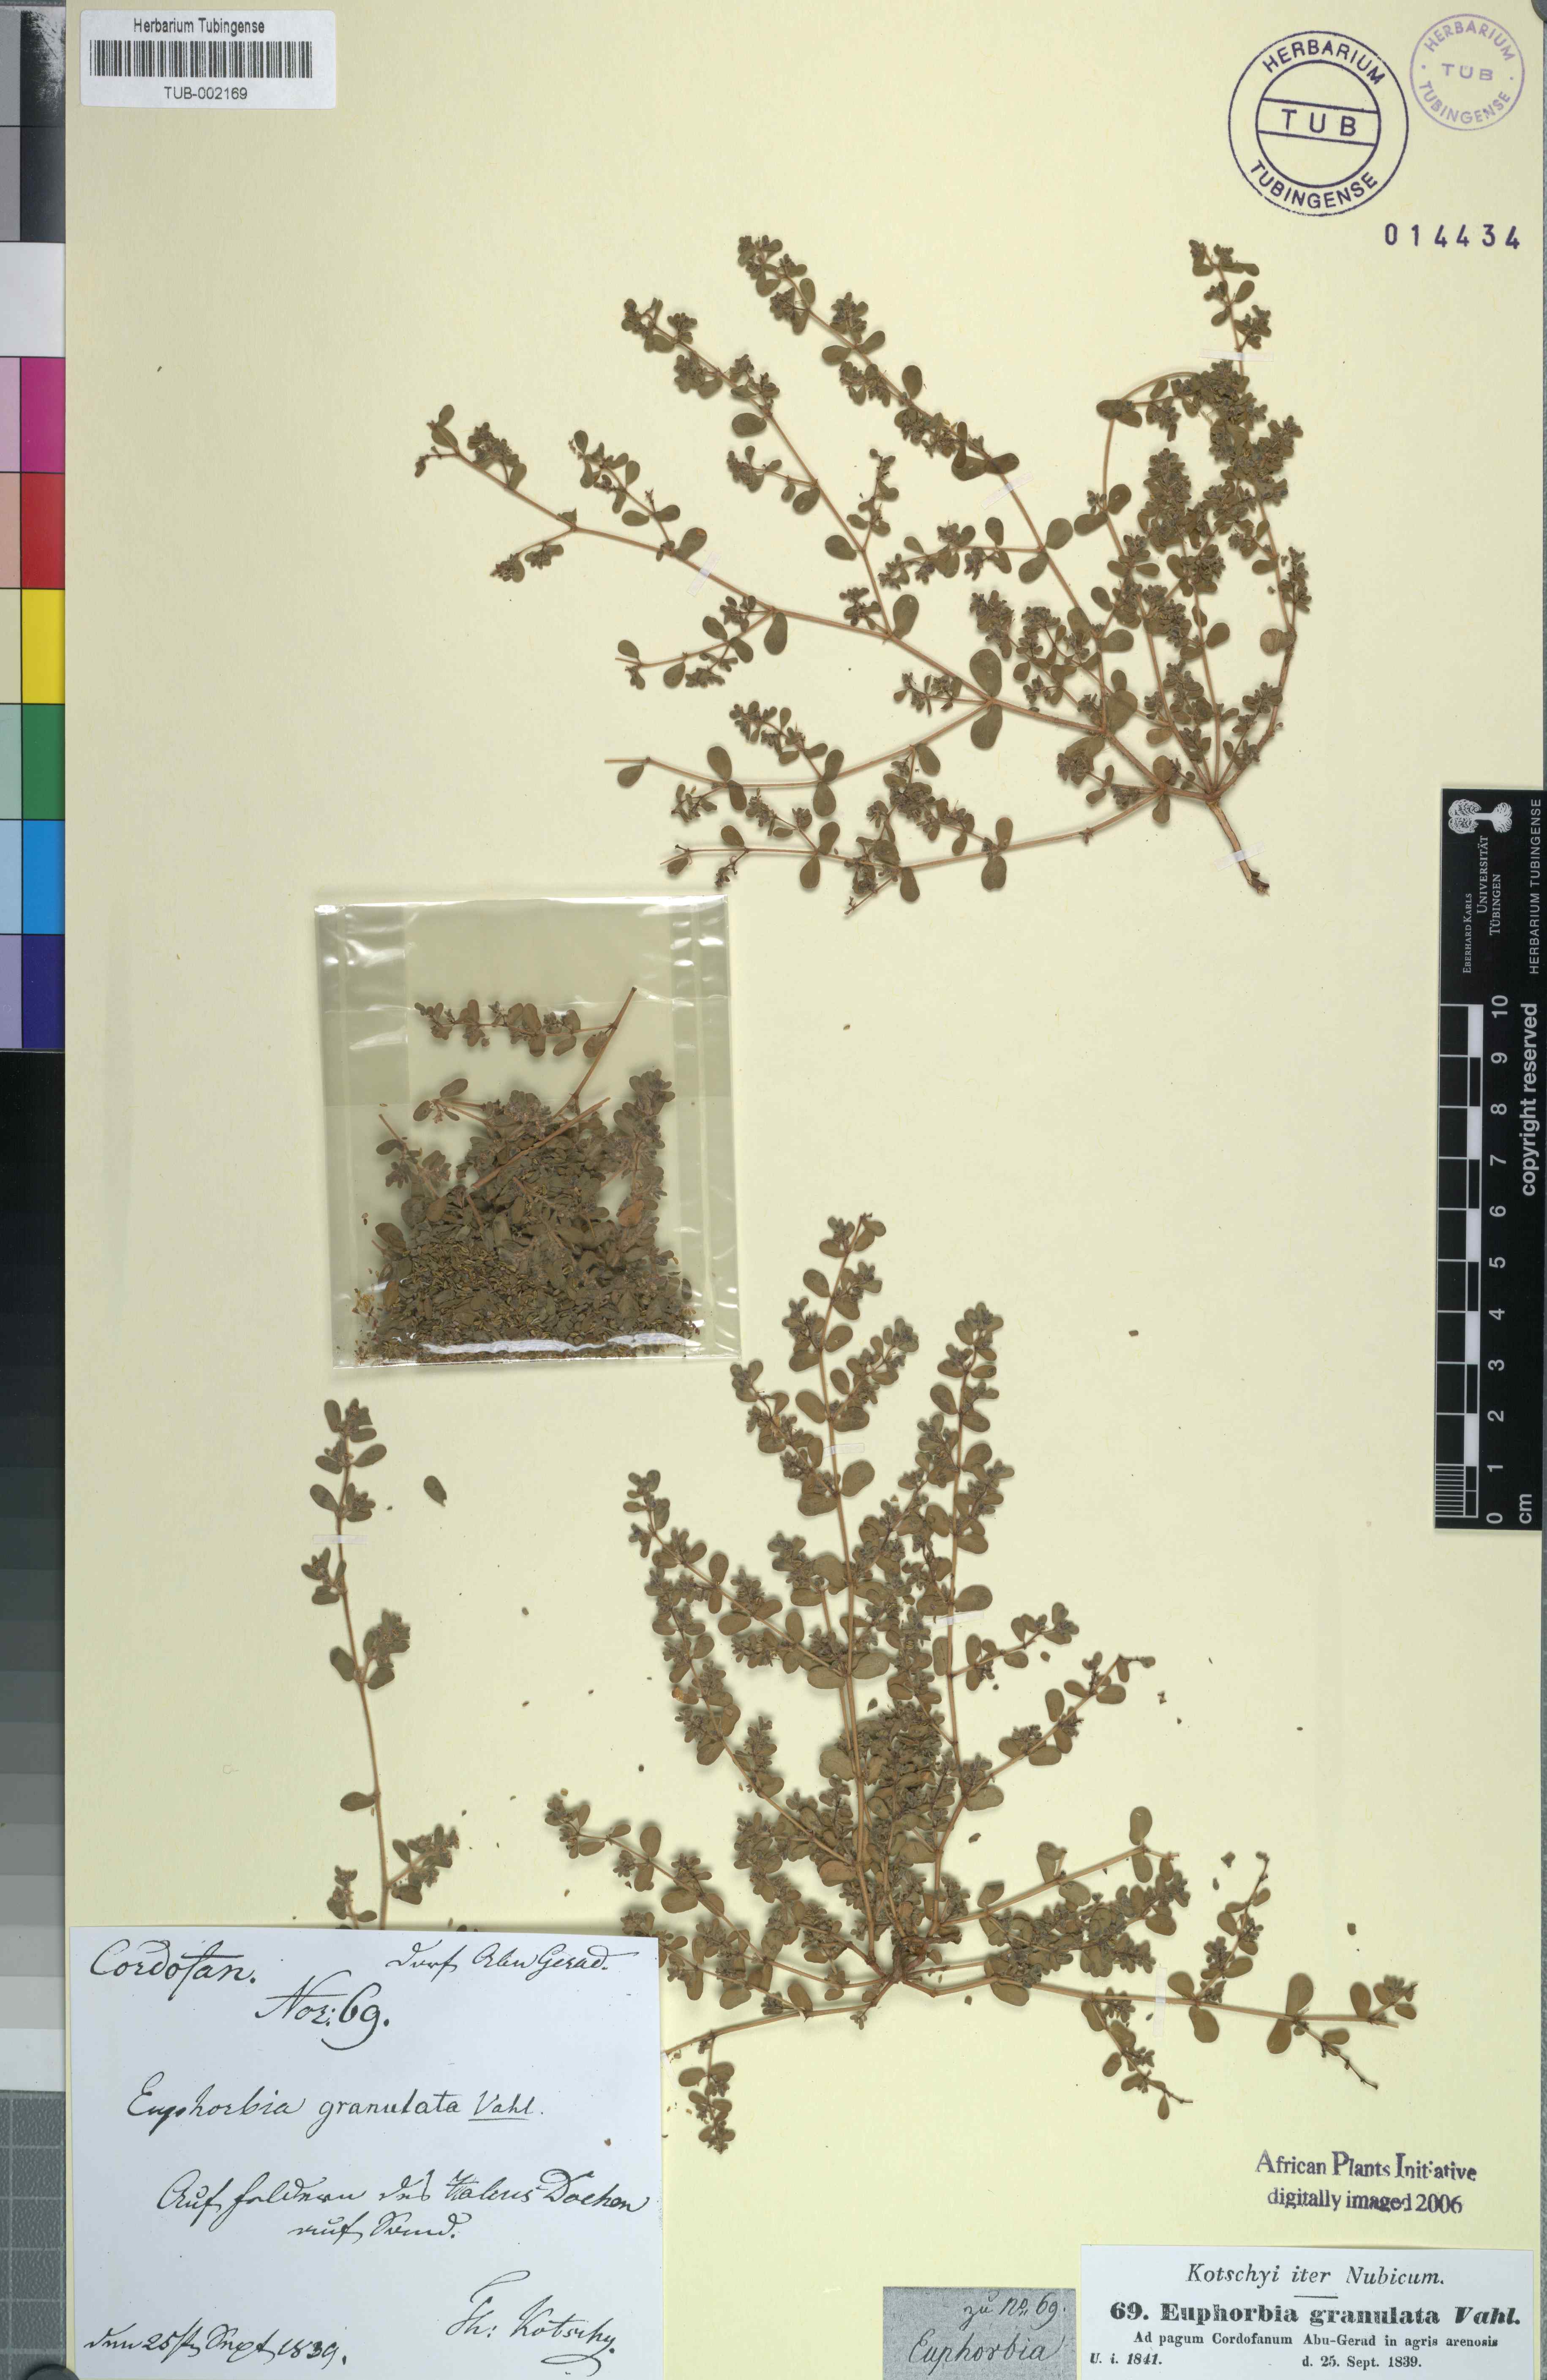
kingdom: Plantae
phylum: Tracheophyta
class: Magnoliopsida
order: Malpighiales
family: Euphorbiaceae
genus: Euphorbia
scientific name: Euphorbia granulata
